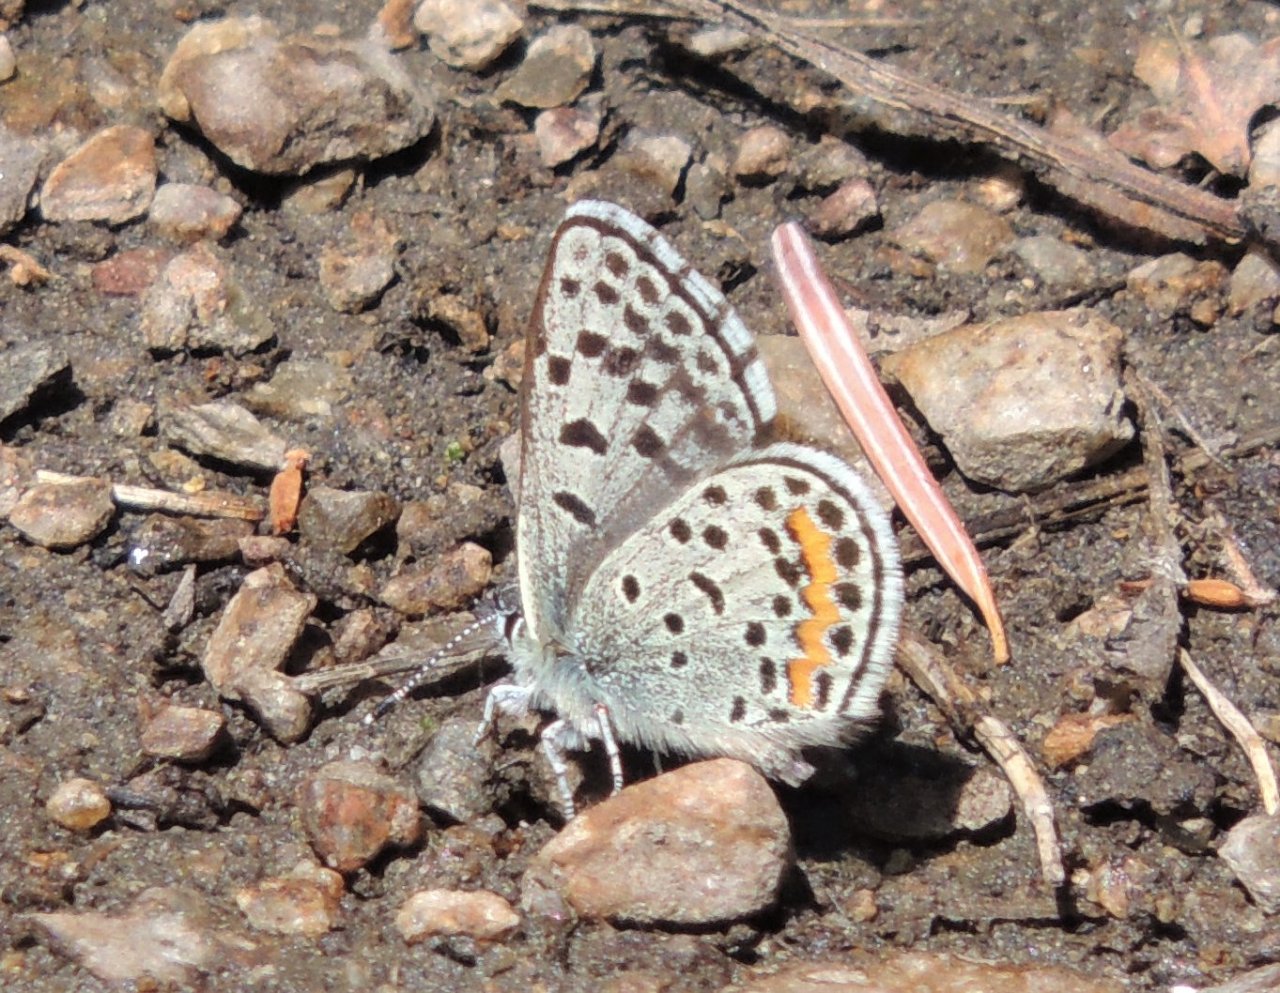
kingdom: Animalia
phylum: Arthropoda
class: Insecta
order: Lepidoptera
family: Lycaenidae
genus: Euphilotes
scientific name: Euphilotes battoides
